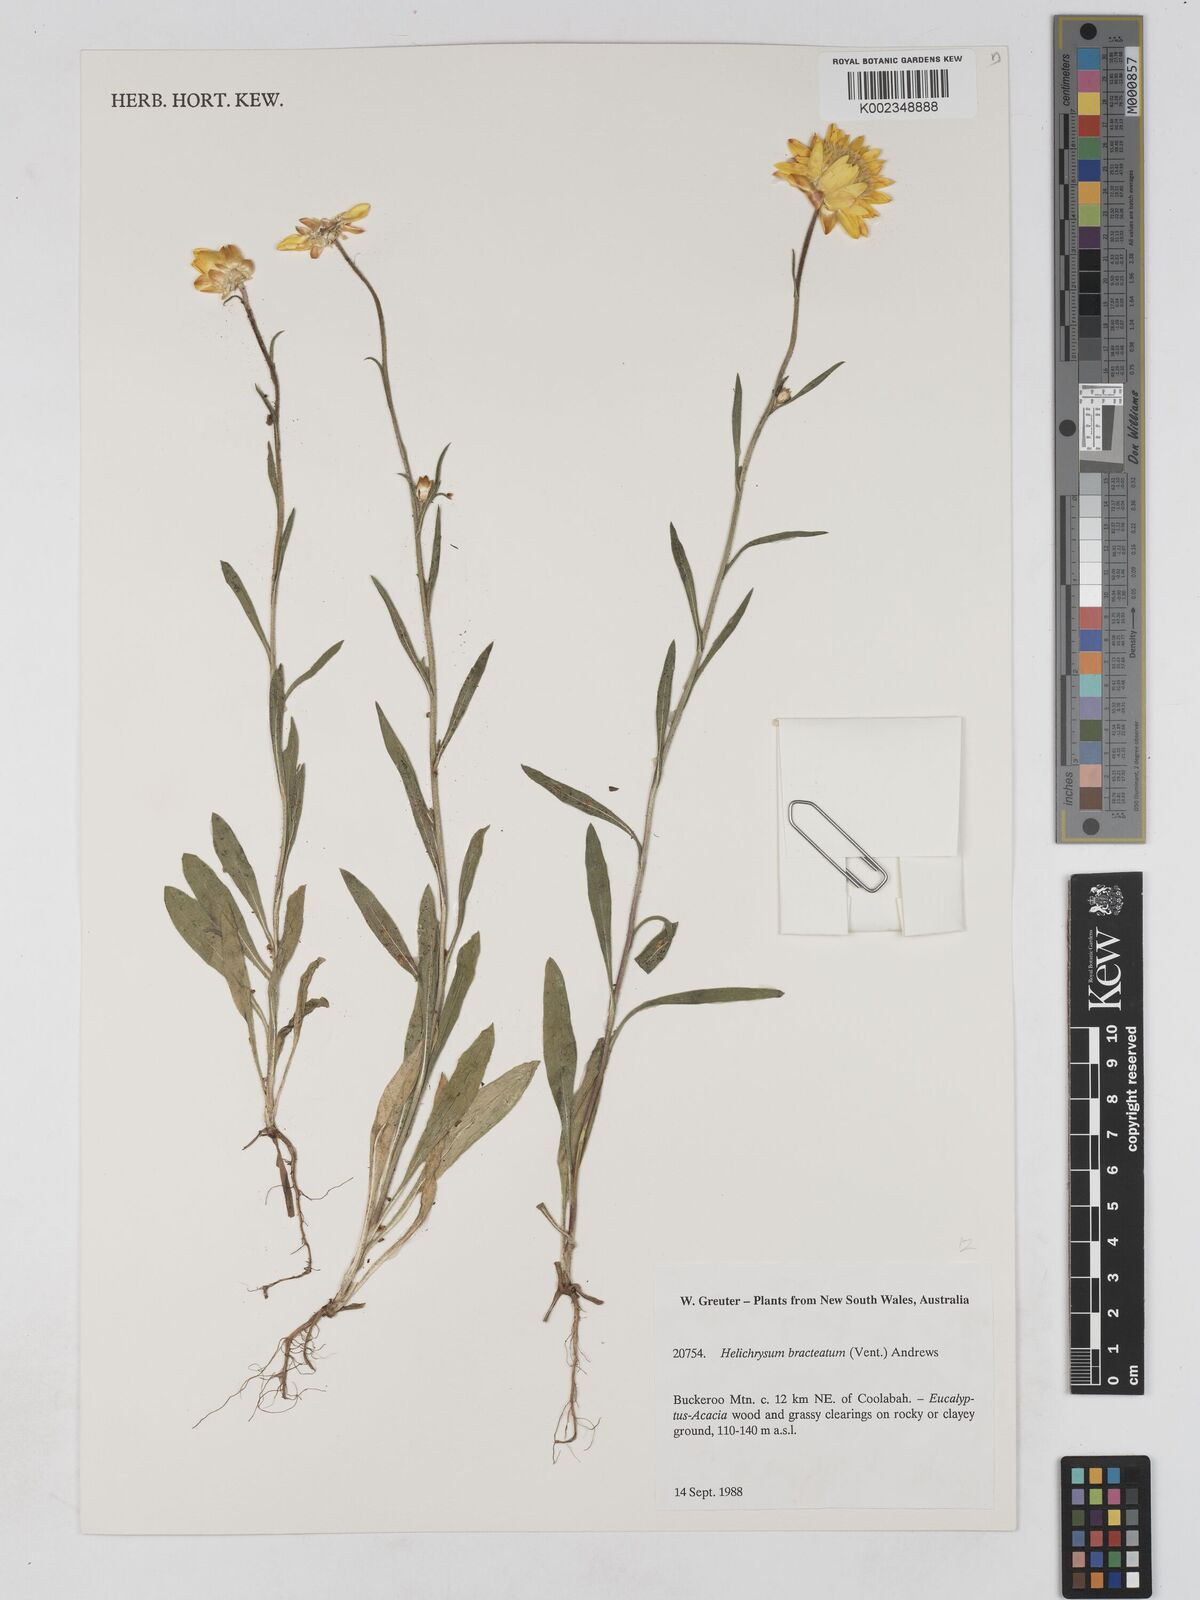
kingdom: Plantae
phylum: Tracheophyta
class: Magnoliopsida
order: Asterales
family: Asteraceae
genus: Xerochrysum
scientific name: Xerochrysum bracteatum
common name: Bracted strawflower
